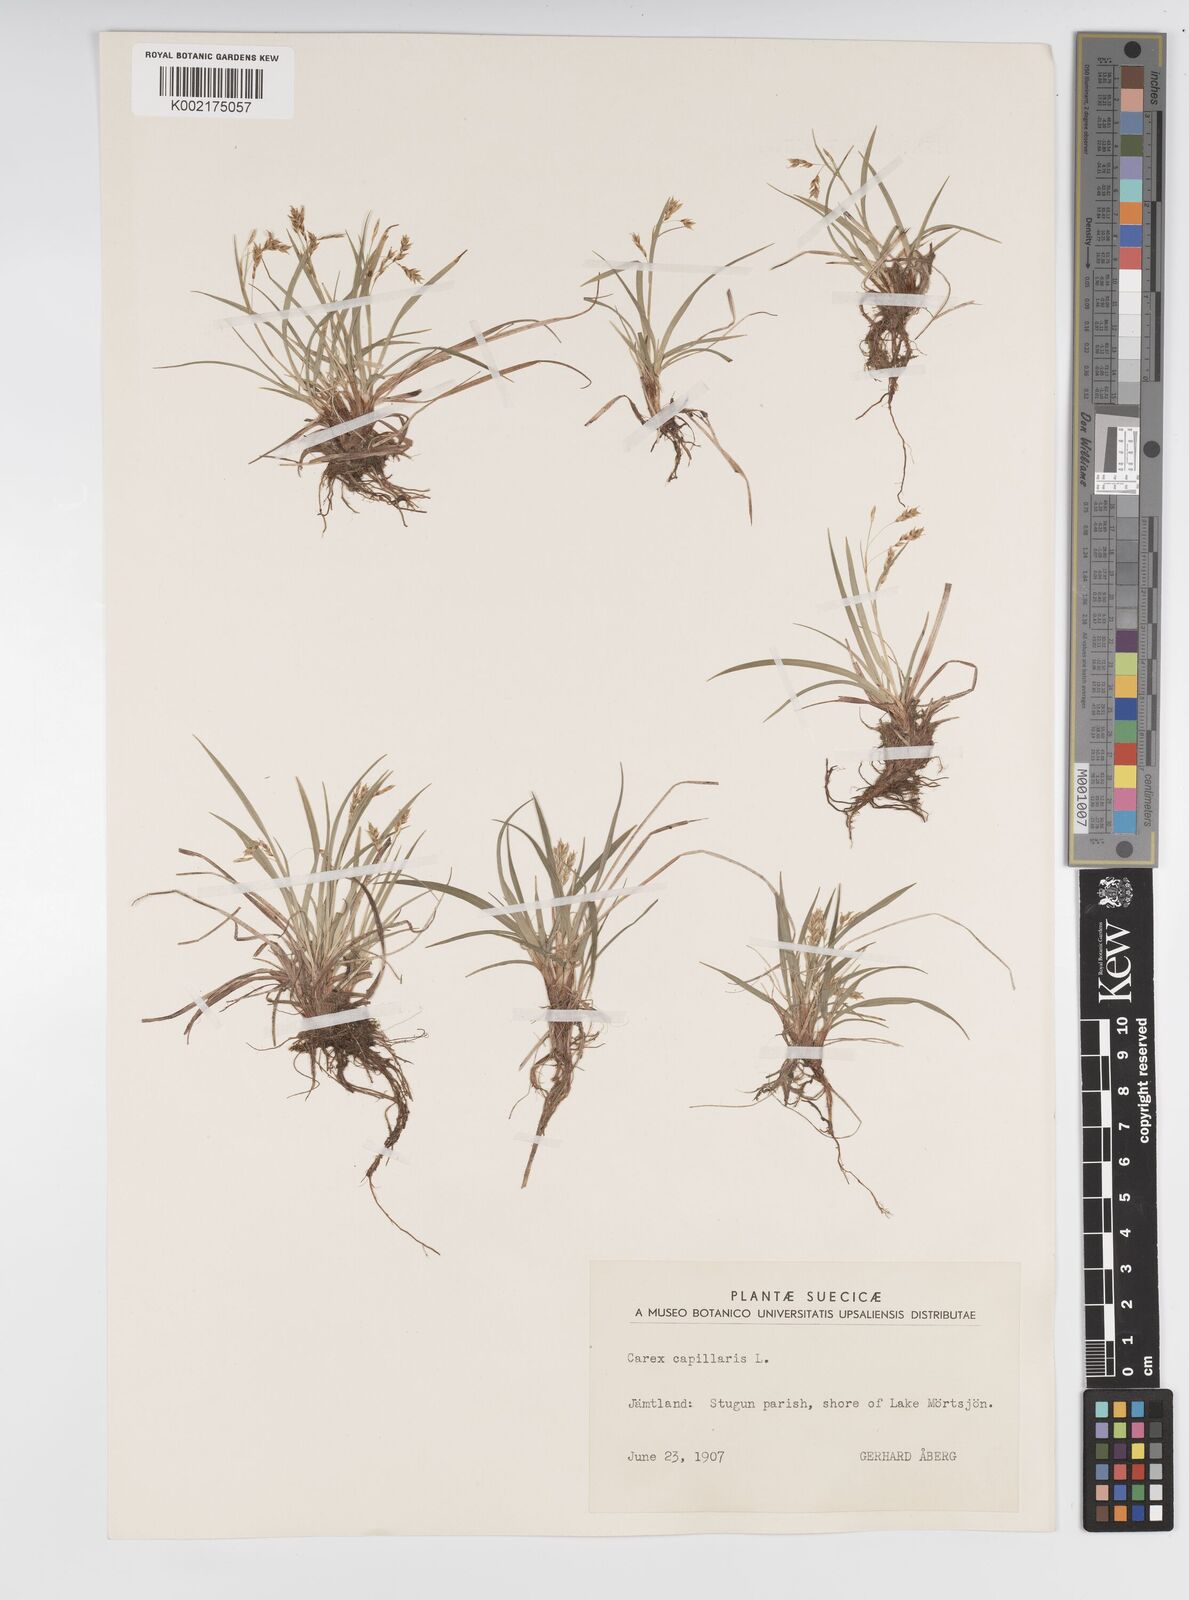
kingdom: Plantae
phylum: Tracheophyta
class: Liliopsida
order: Poales
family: Cyperaceae
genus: Carex
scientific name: Carex capillaris
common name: Hair sedge
